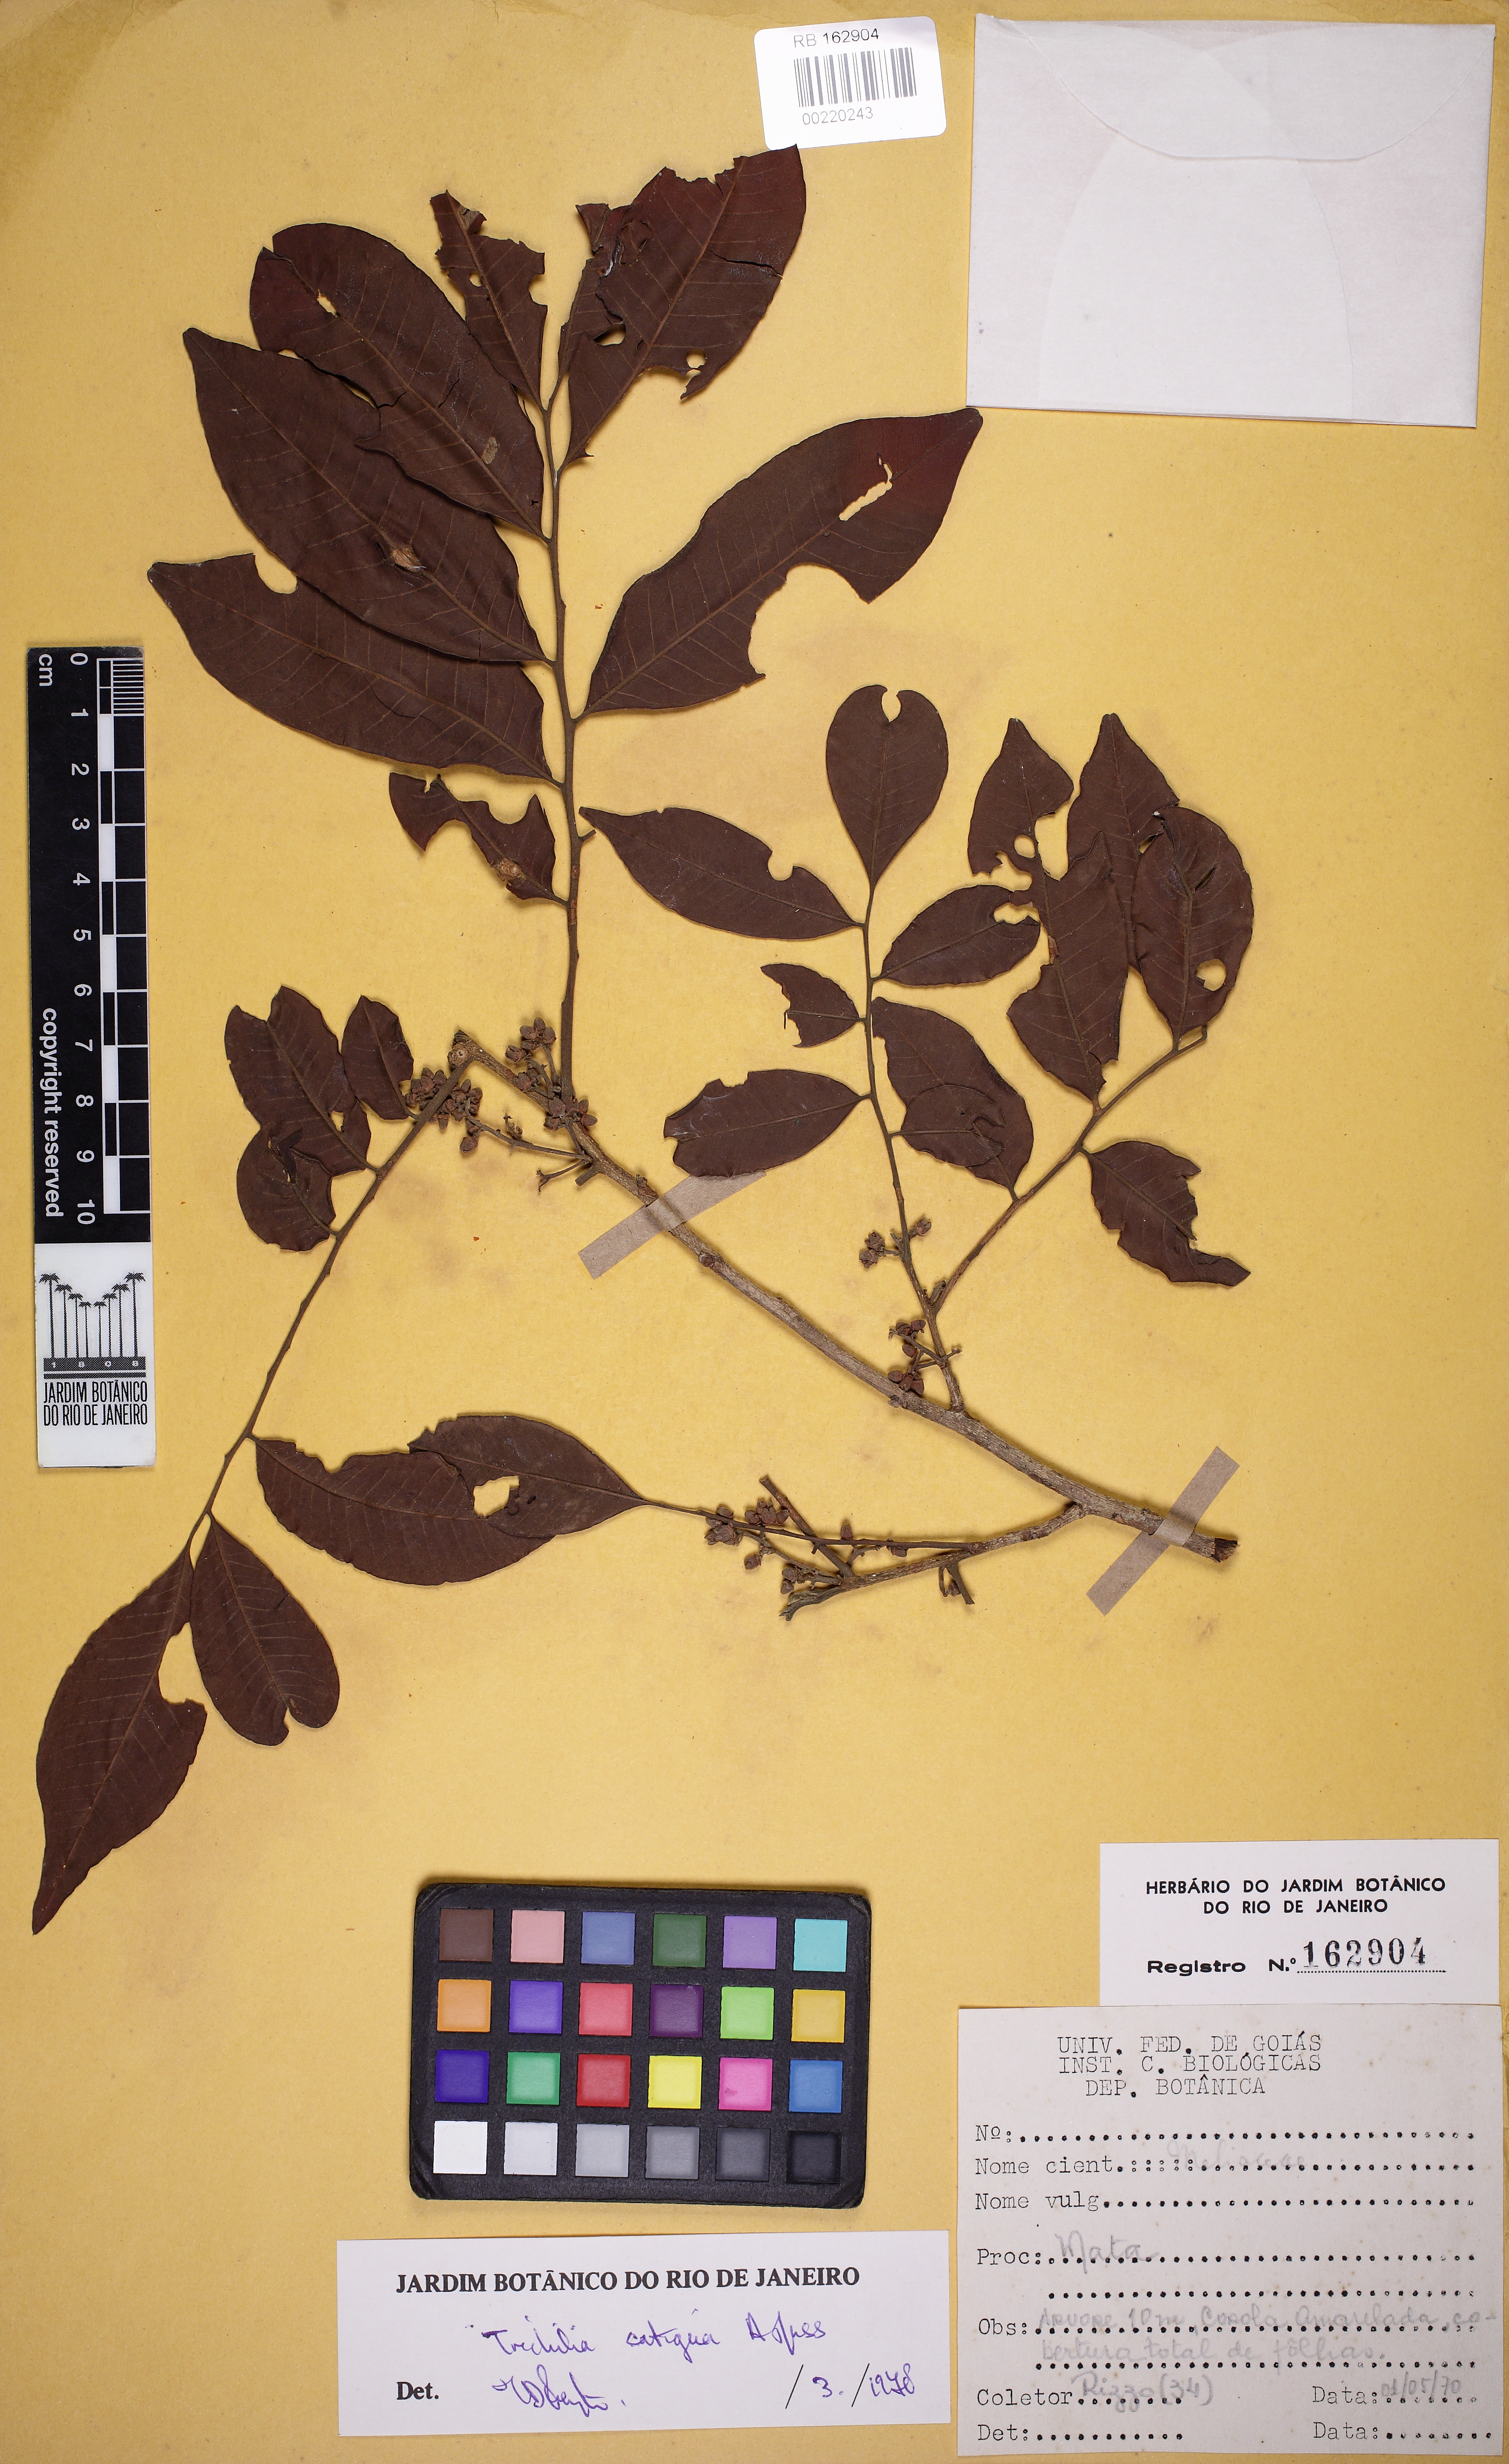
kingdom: Plantae
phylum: Tracheophyta
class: Magnoliopsida
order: Sapindales
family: Meliaceae
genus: Trichilia
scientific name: Trichilia catigua
